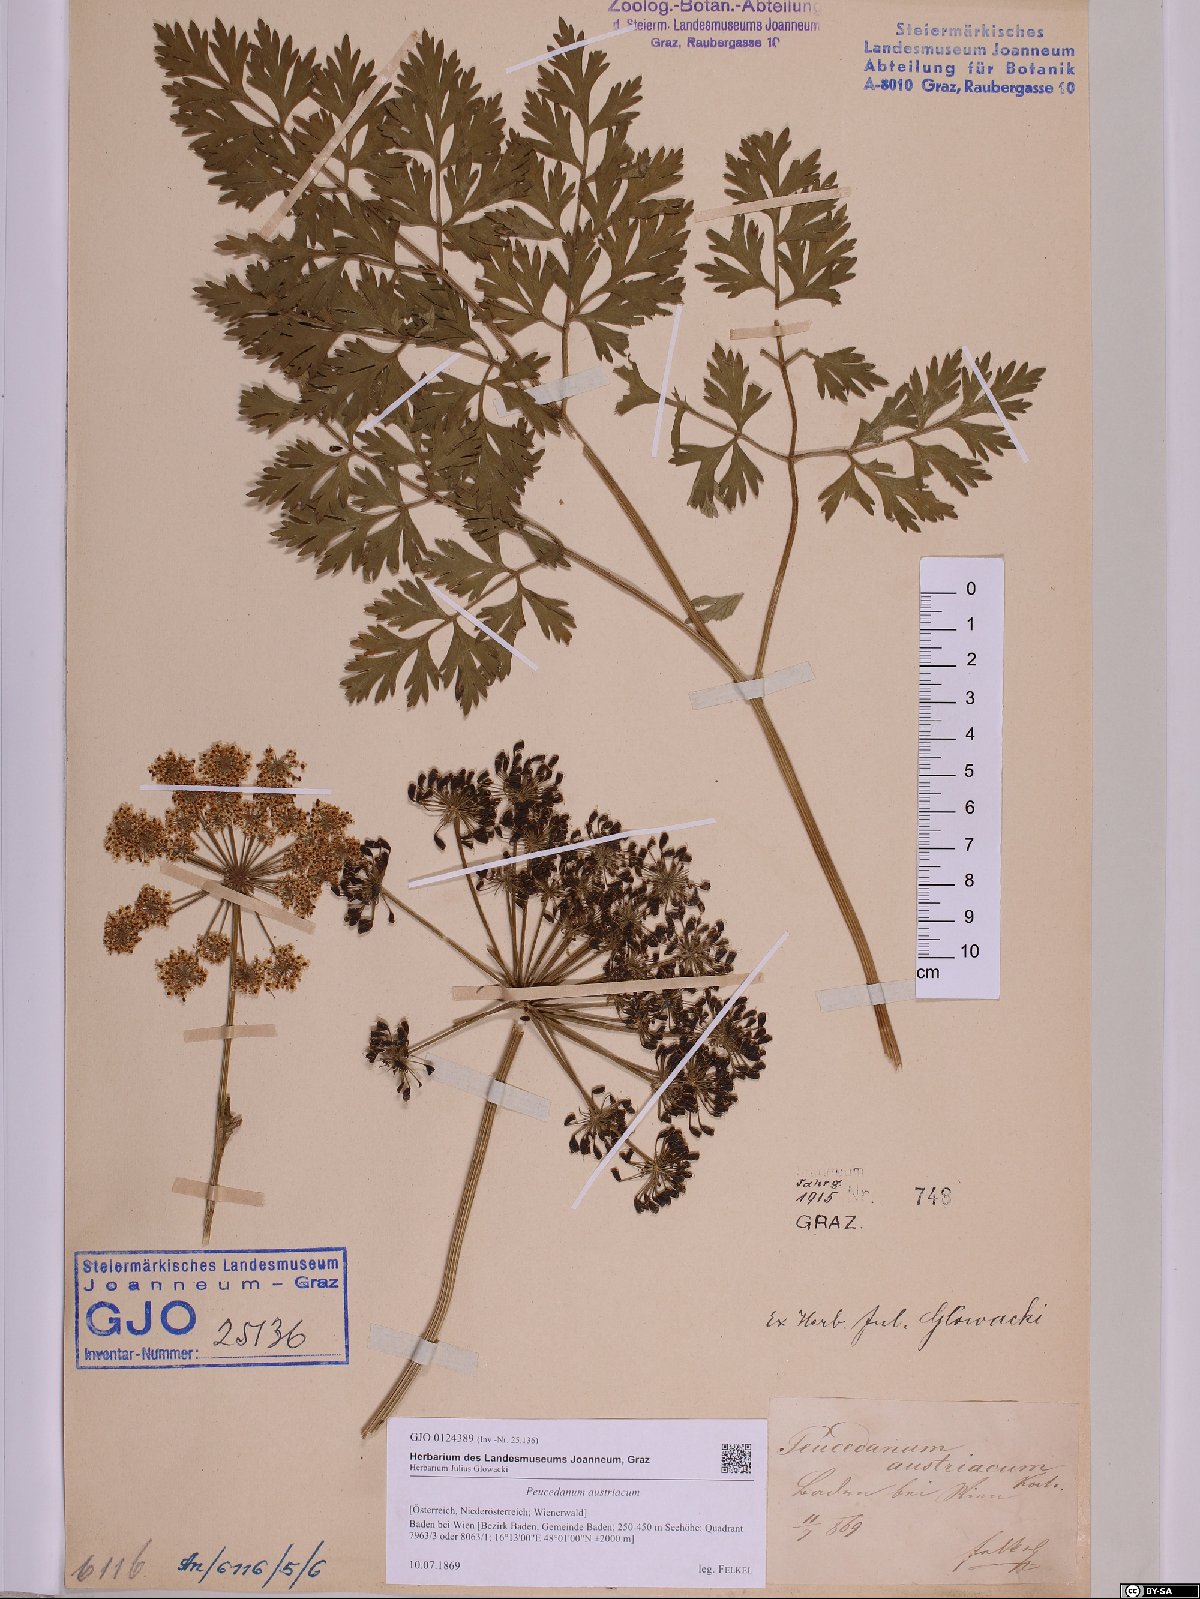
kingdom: Plantae
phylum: Tracheophyta
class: Magnoliopsida
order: Apiales
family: Apiaceae
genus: Peucedanum
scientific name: Peucedanum austriacum
